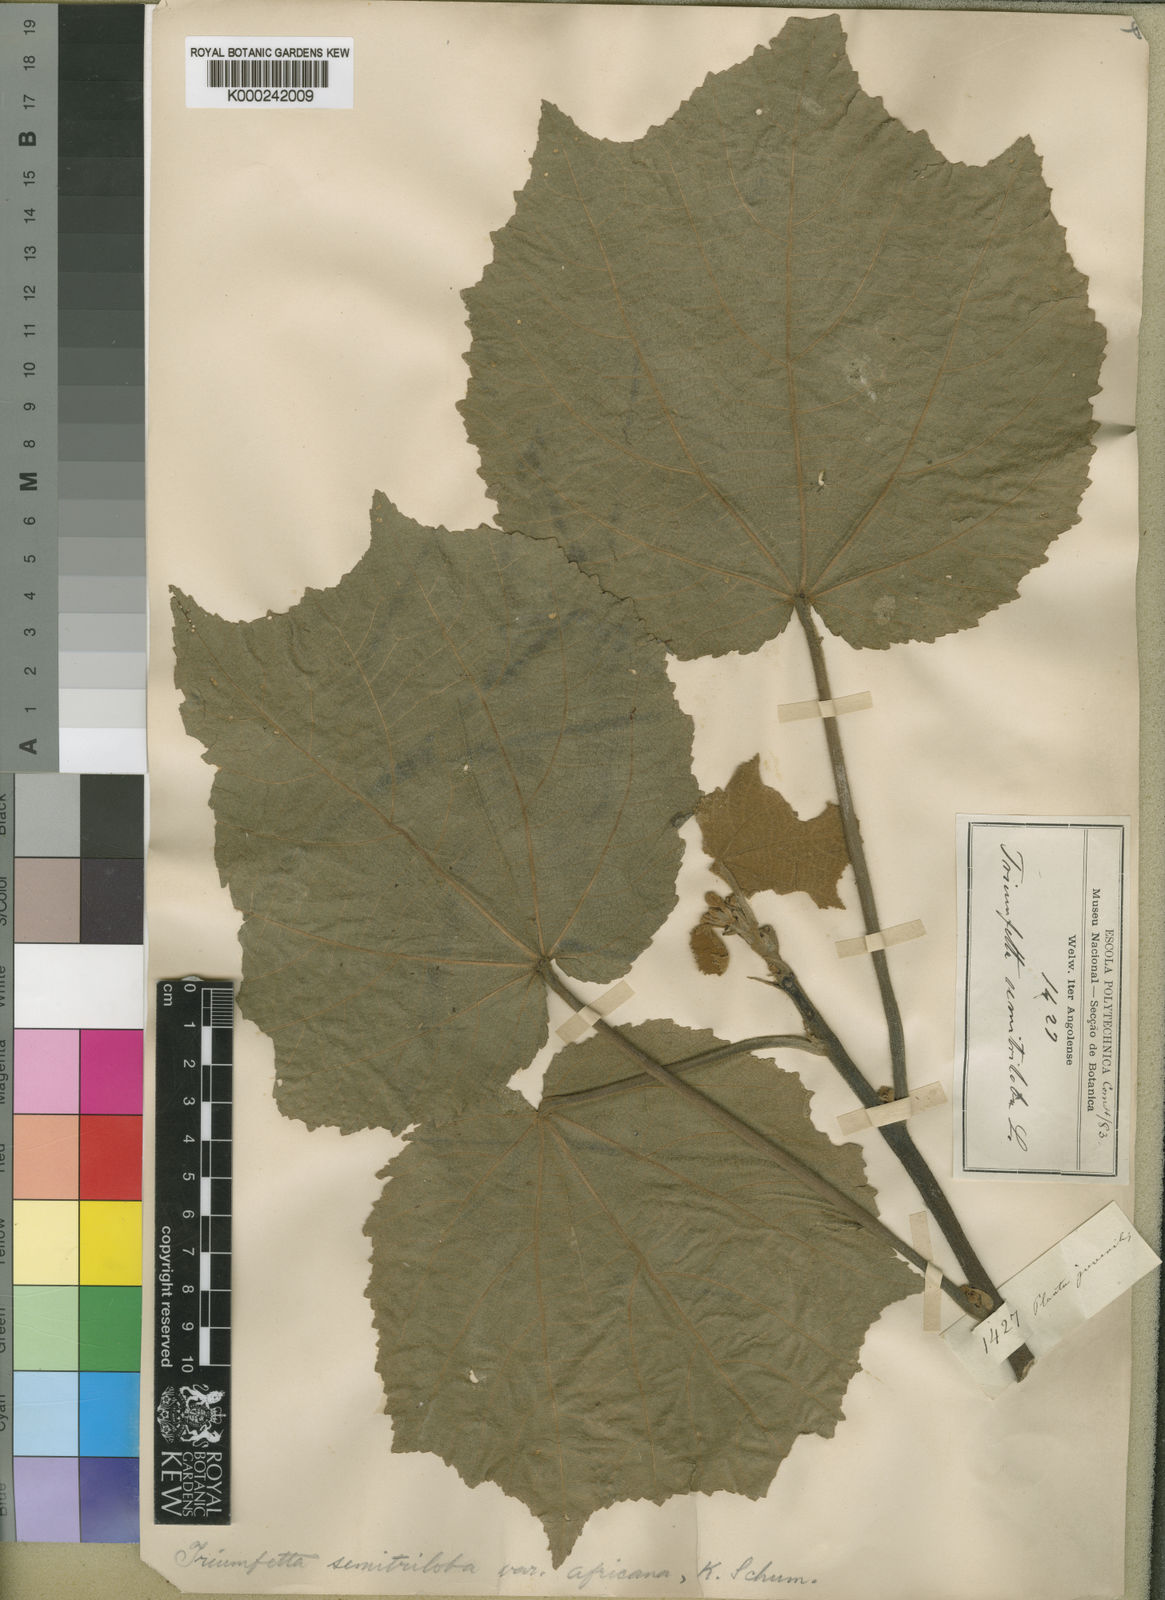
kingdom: Plantae
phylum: Tracheophyta
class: Magnoliopsida
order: Malvales
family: Malvaceae
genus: Triumfetta
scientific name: Triumfetta cordifolia
